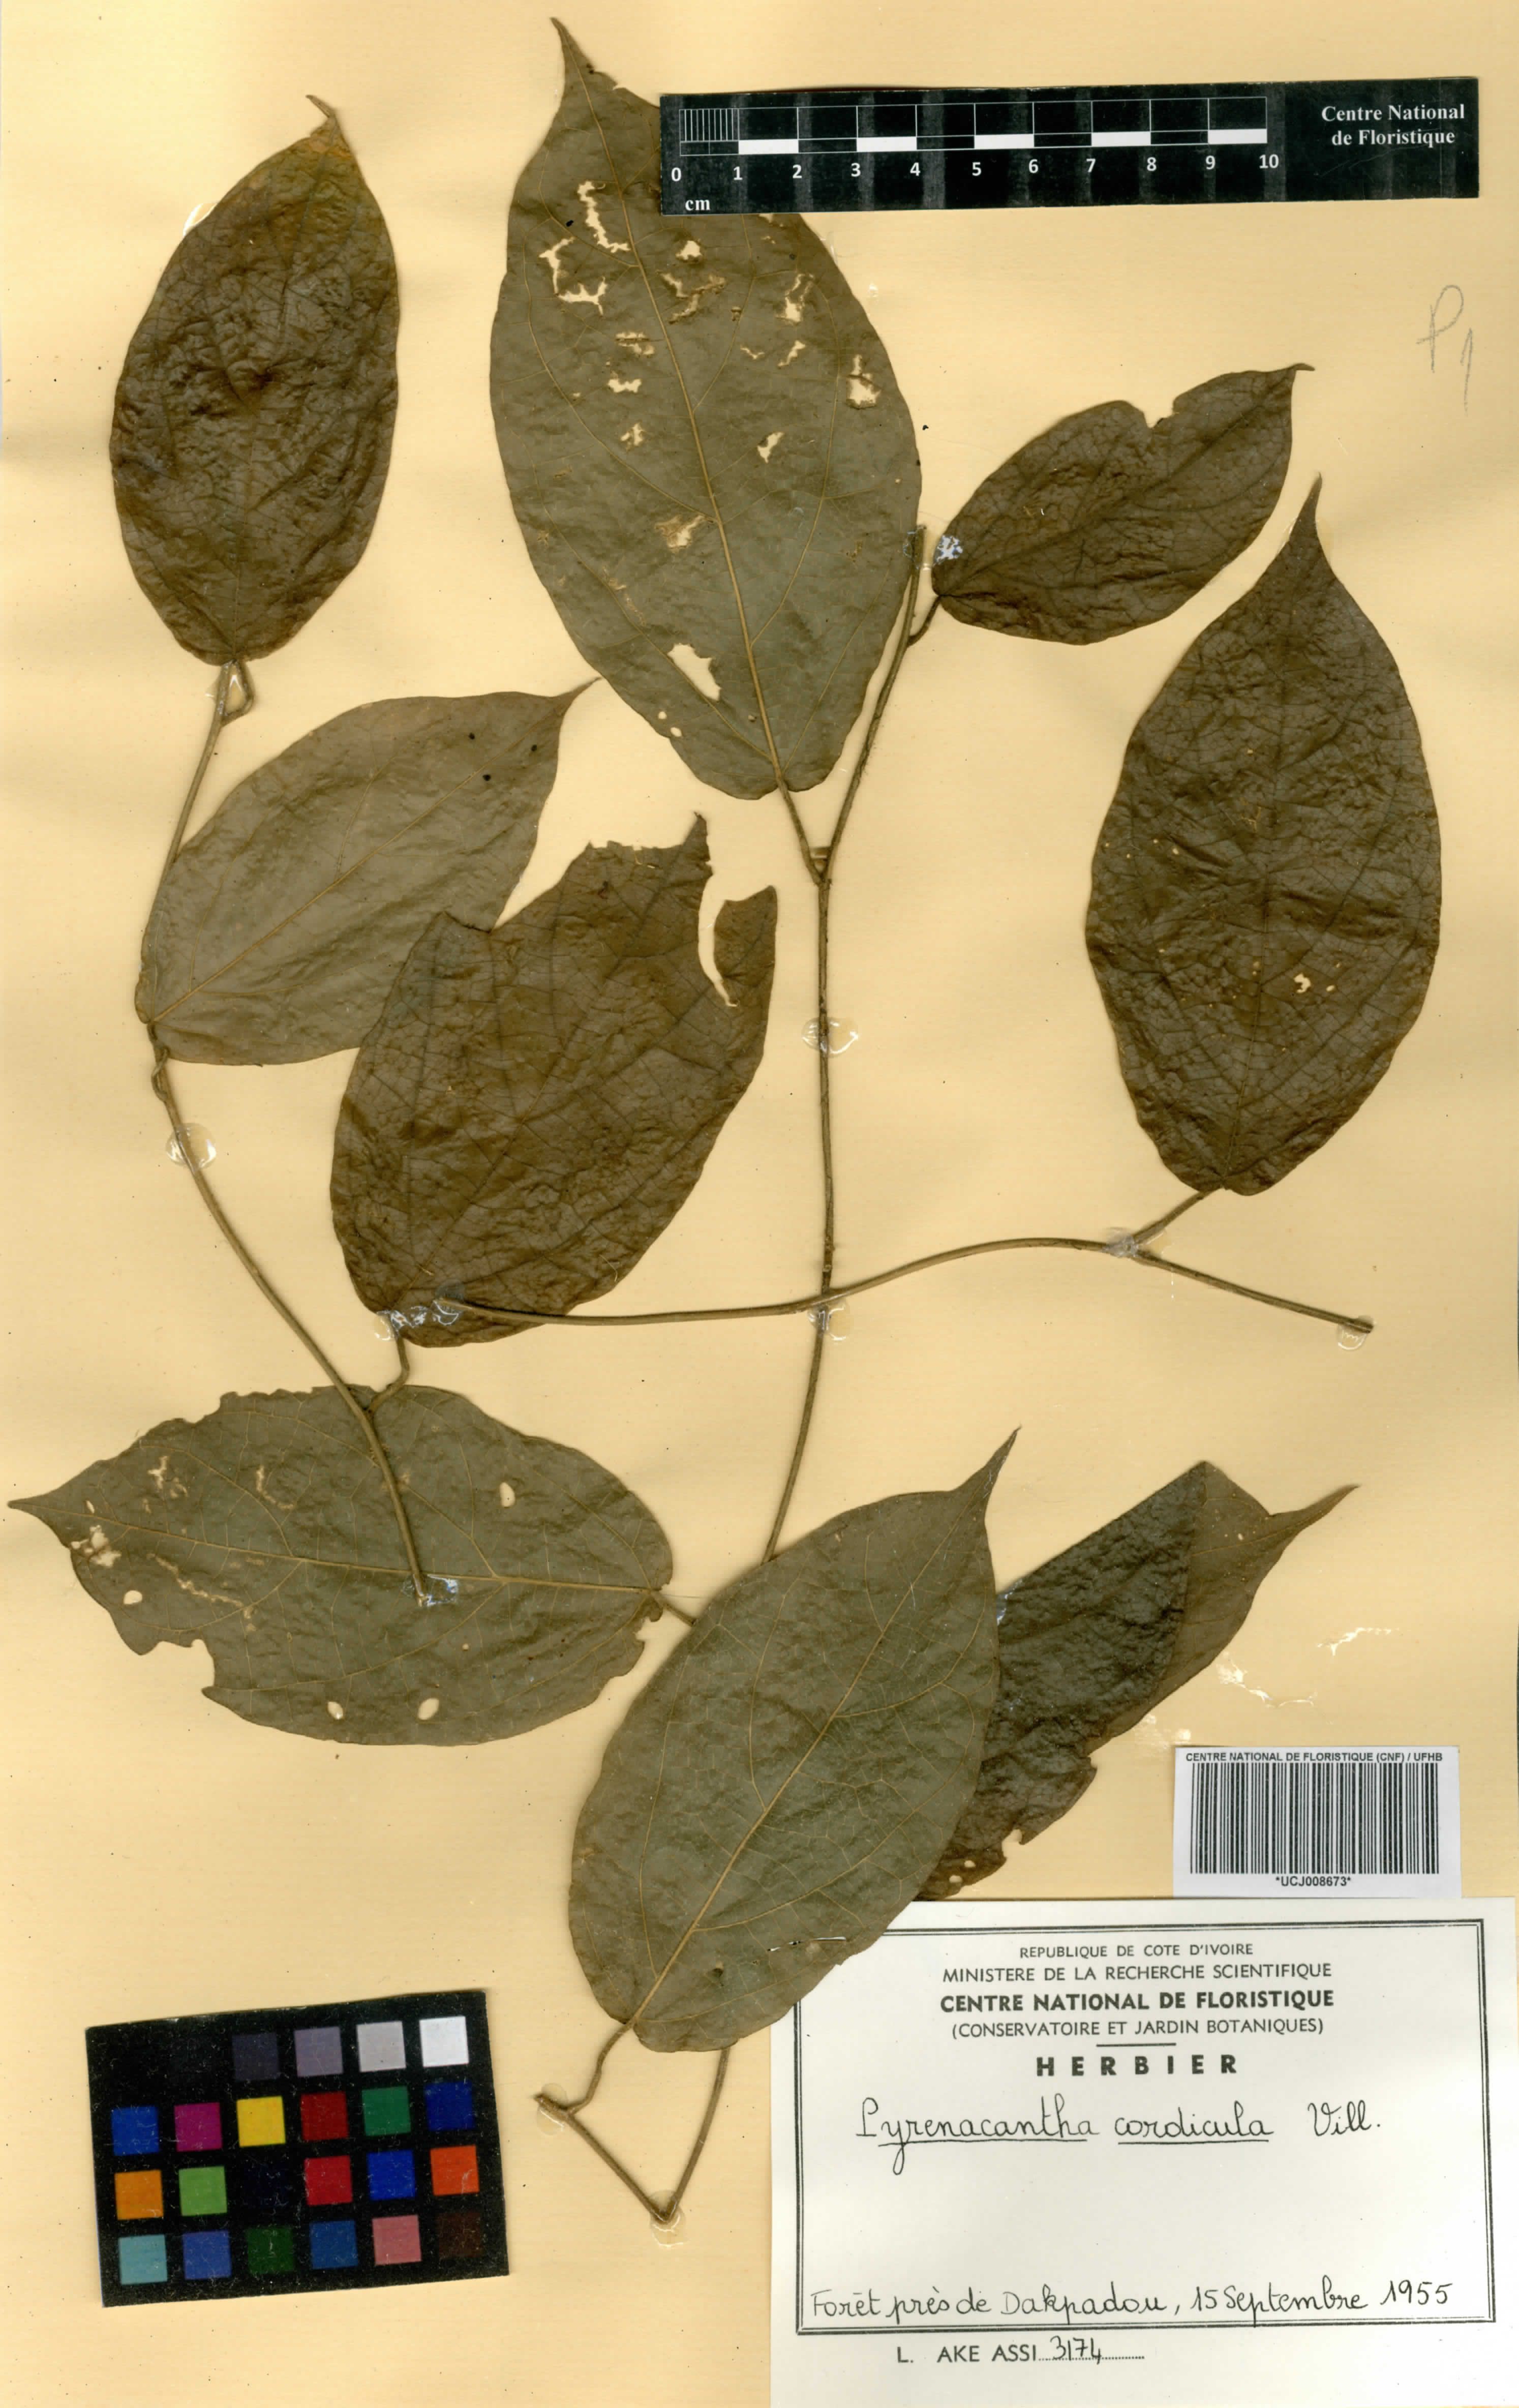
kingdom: Plantae
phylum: Tracheophyta
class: Magnoliopsida
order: Icacinales
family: Icacinaceae
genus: Pyrenacantha
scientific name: Pyrenacantha villiersii
